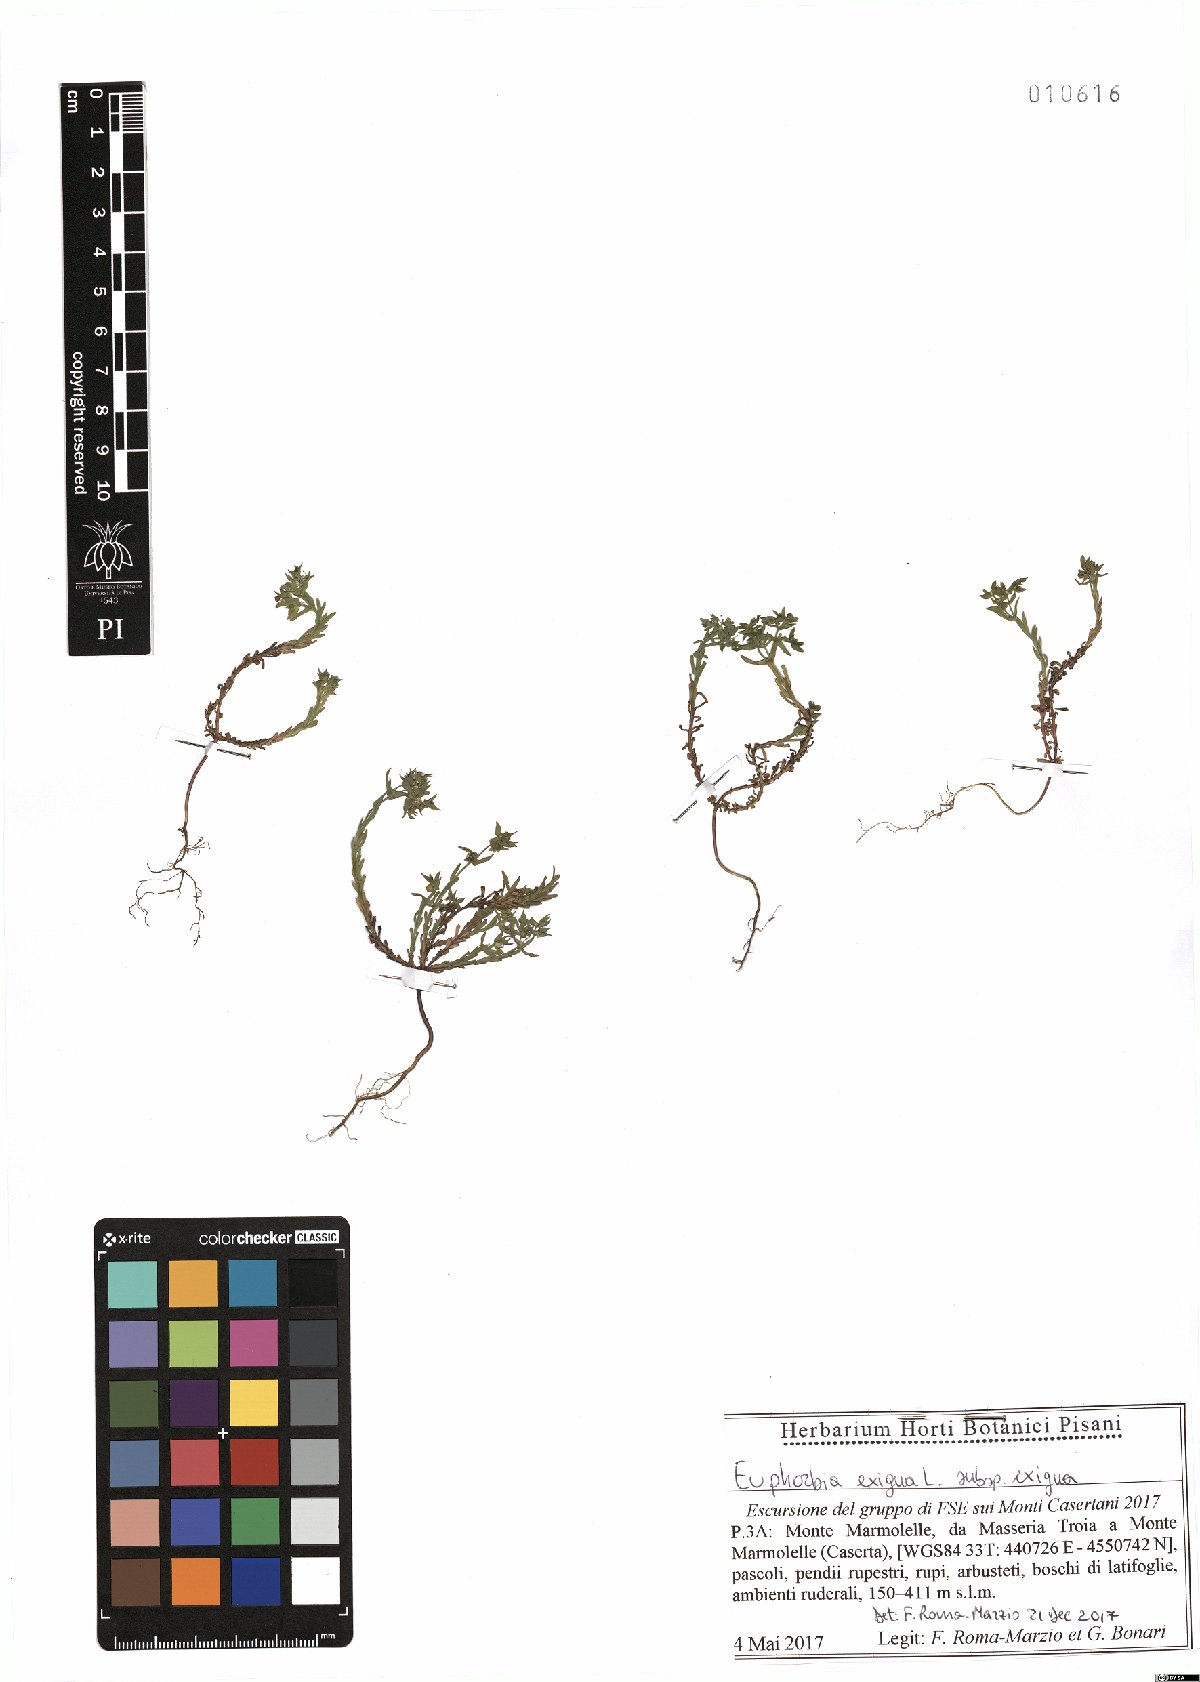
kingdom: Plantae
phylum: Tracheophyta
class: Magnoliopsida
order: Malpighiales
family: Euphorbiaceae
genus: Euphorbia
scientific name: Euphorbia exigua
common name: Dwarf spurge
